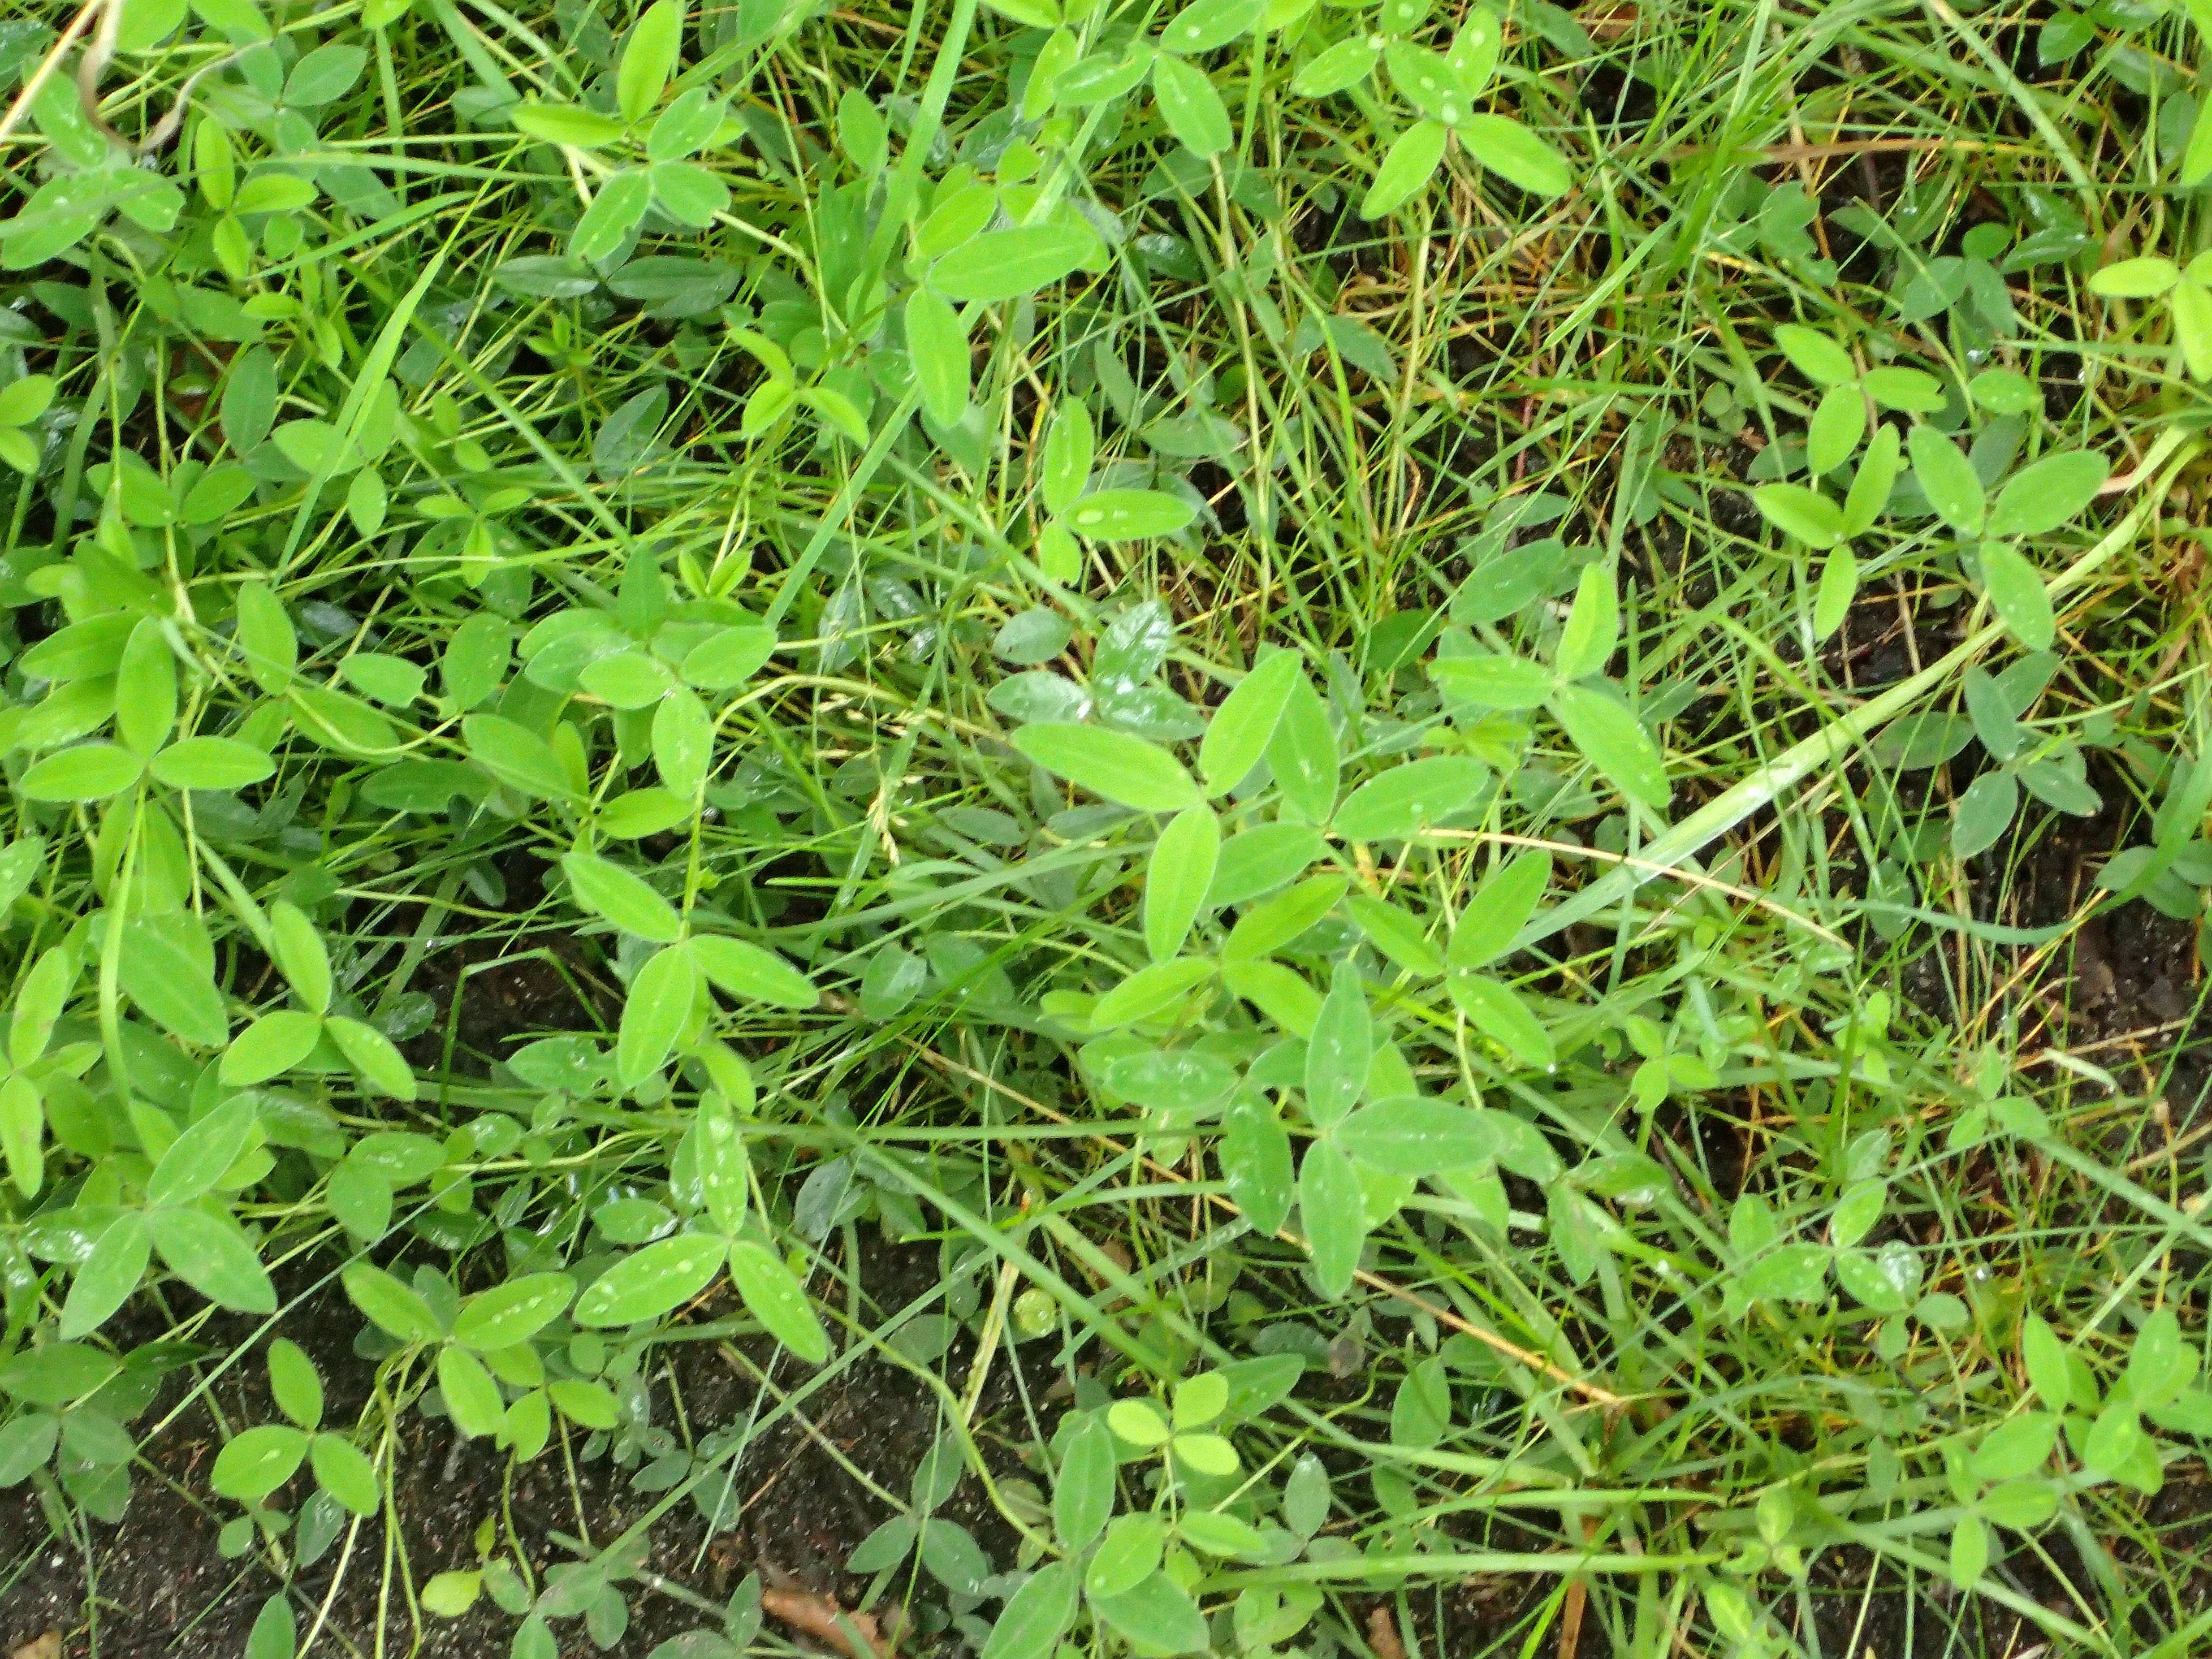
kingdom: Plantae
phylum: Tracheophyta
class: Magnoliopsida
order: Fabales
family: Fabaceae
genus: Trifolium
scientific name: Trifolium medium
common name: Bugtet kløver
